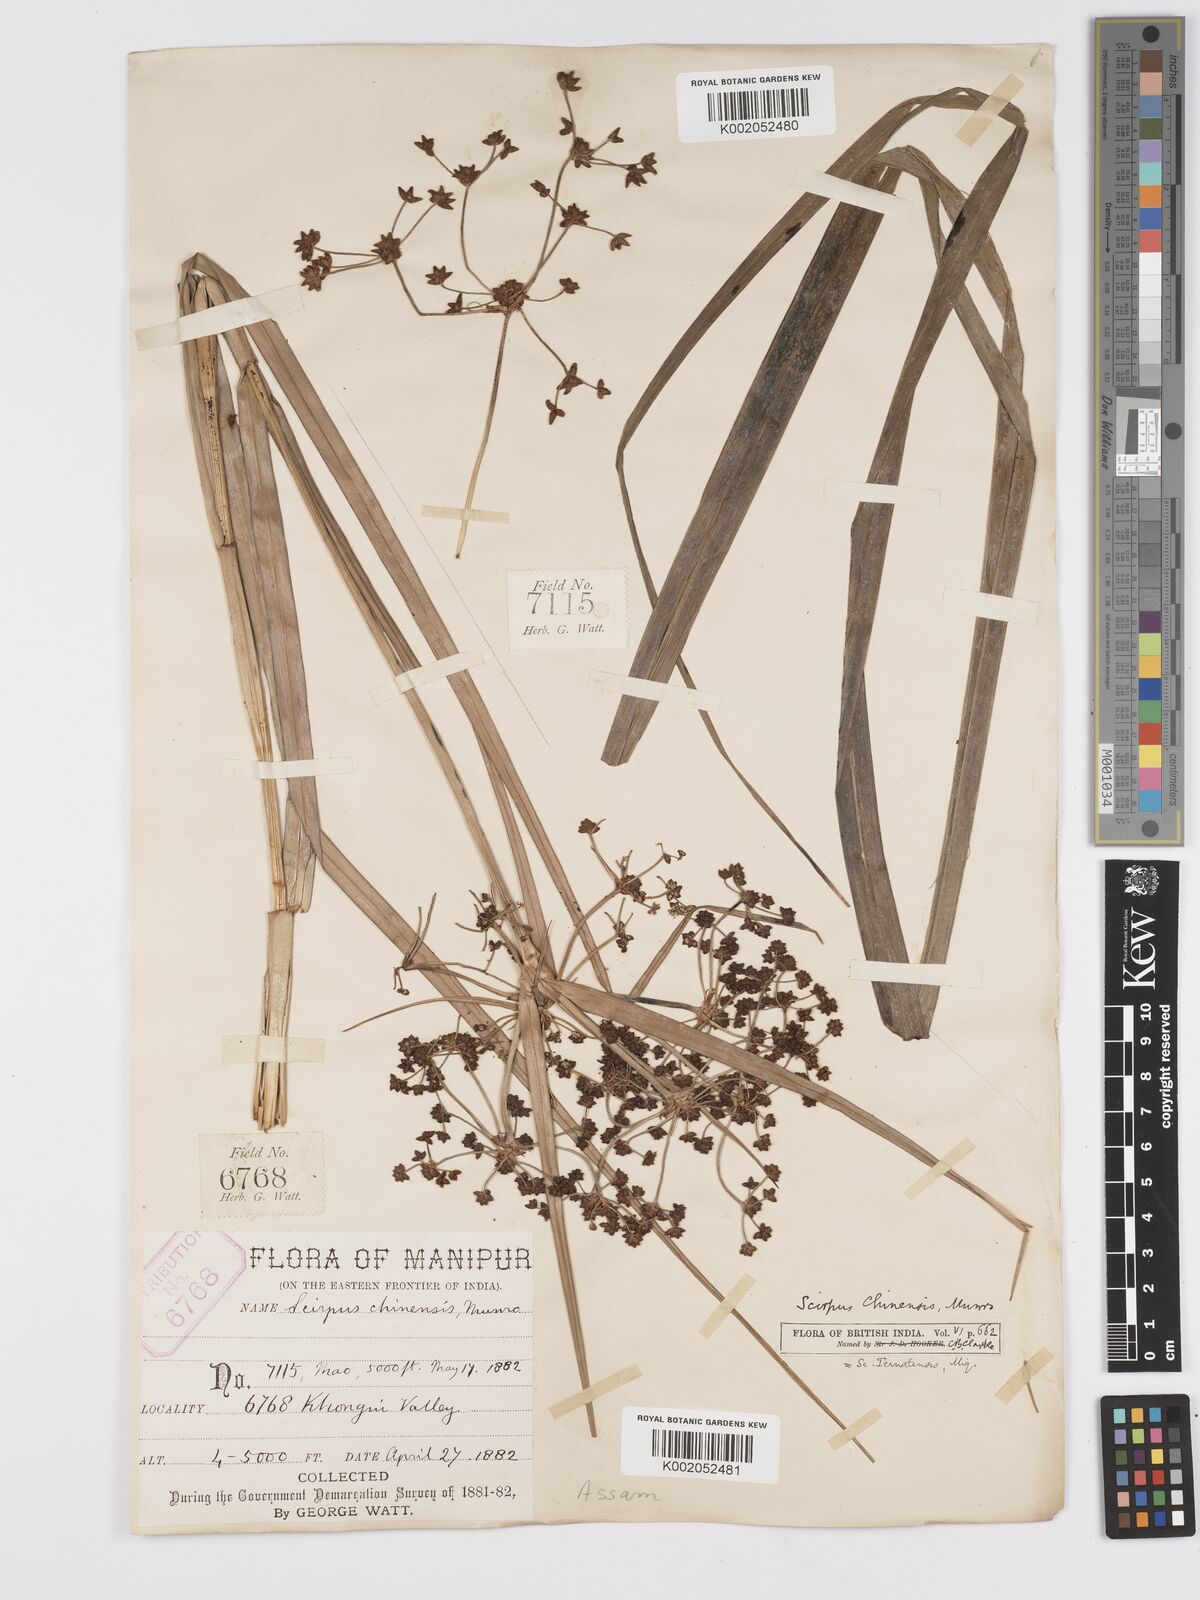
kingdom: Plantae
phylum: Tracheophyta
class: Liliopsida
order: Poales
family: Cyperaceae
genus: Scirpus
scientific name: Scirpus ternatanus
